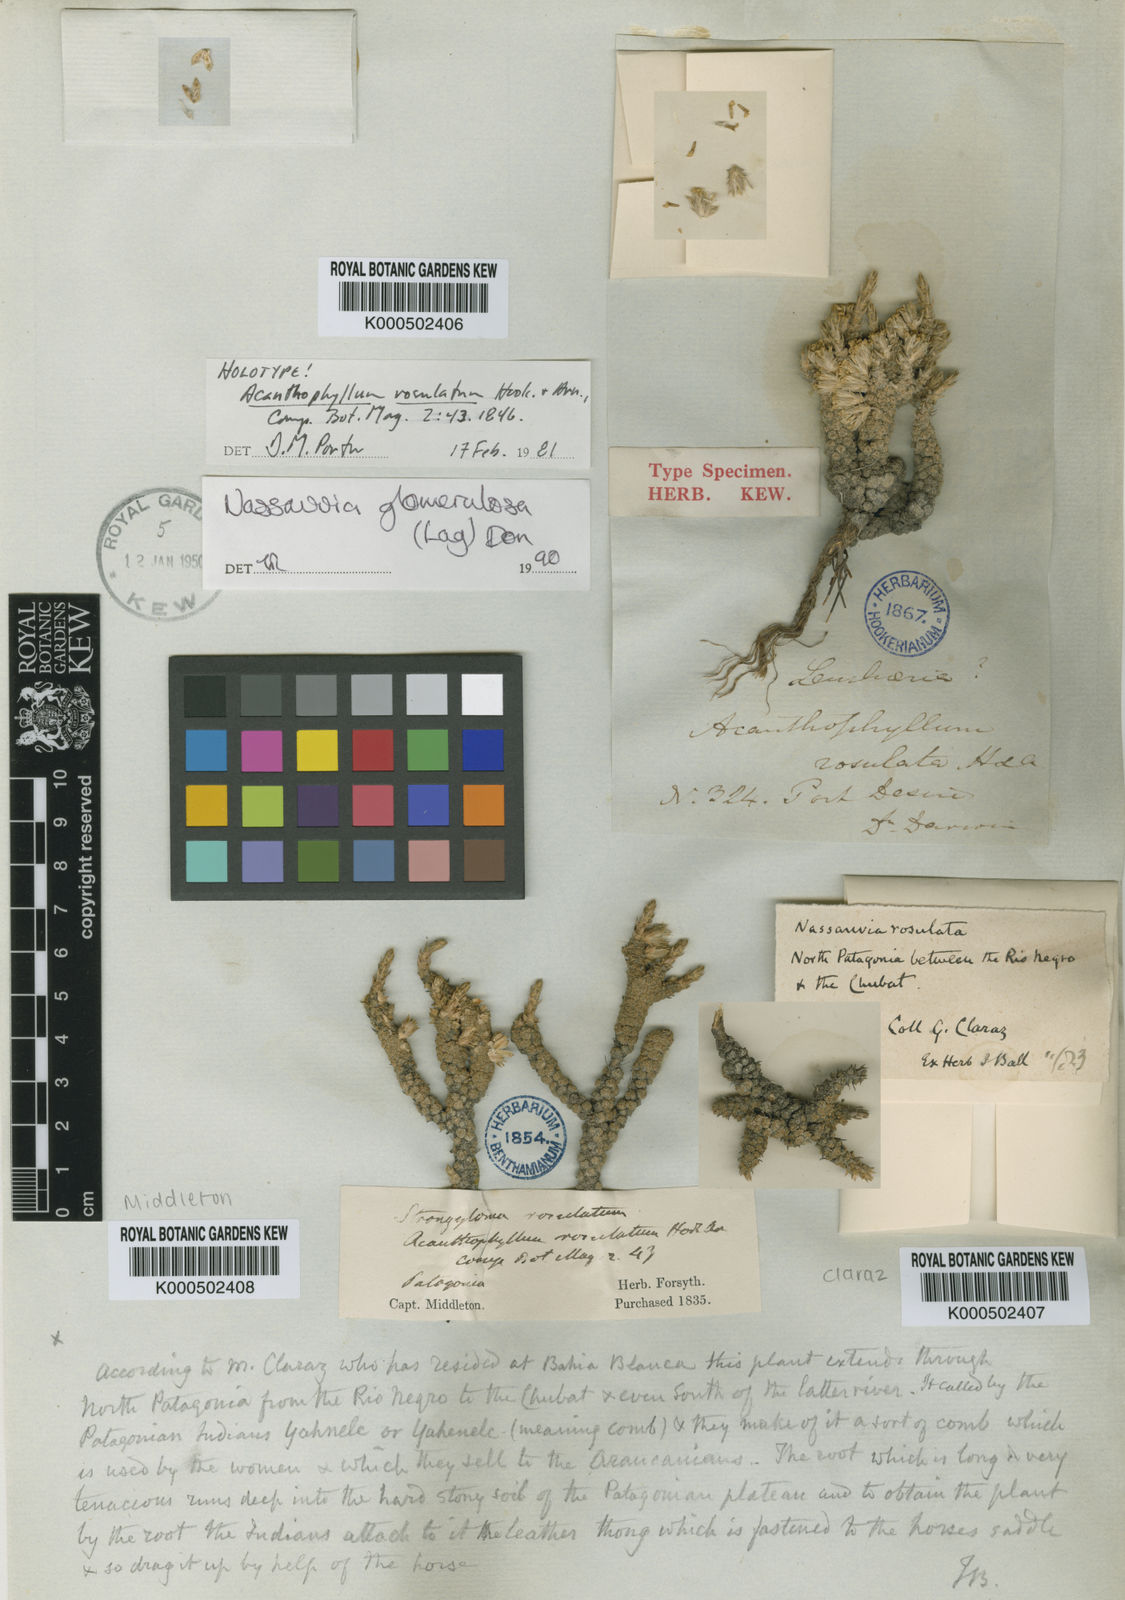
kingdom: Plantae
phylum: Tracheophyta
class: Magnoliopsida
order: Asterales
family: Asteraceae
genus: Nassauvia
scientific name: Nassauvia glomerulosa
